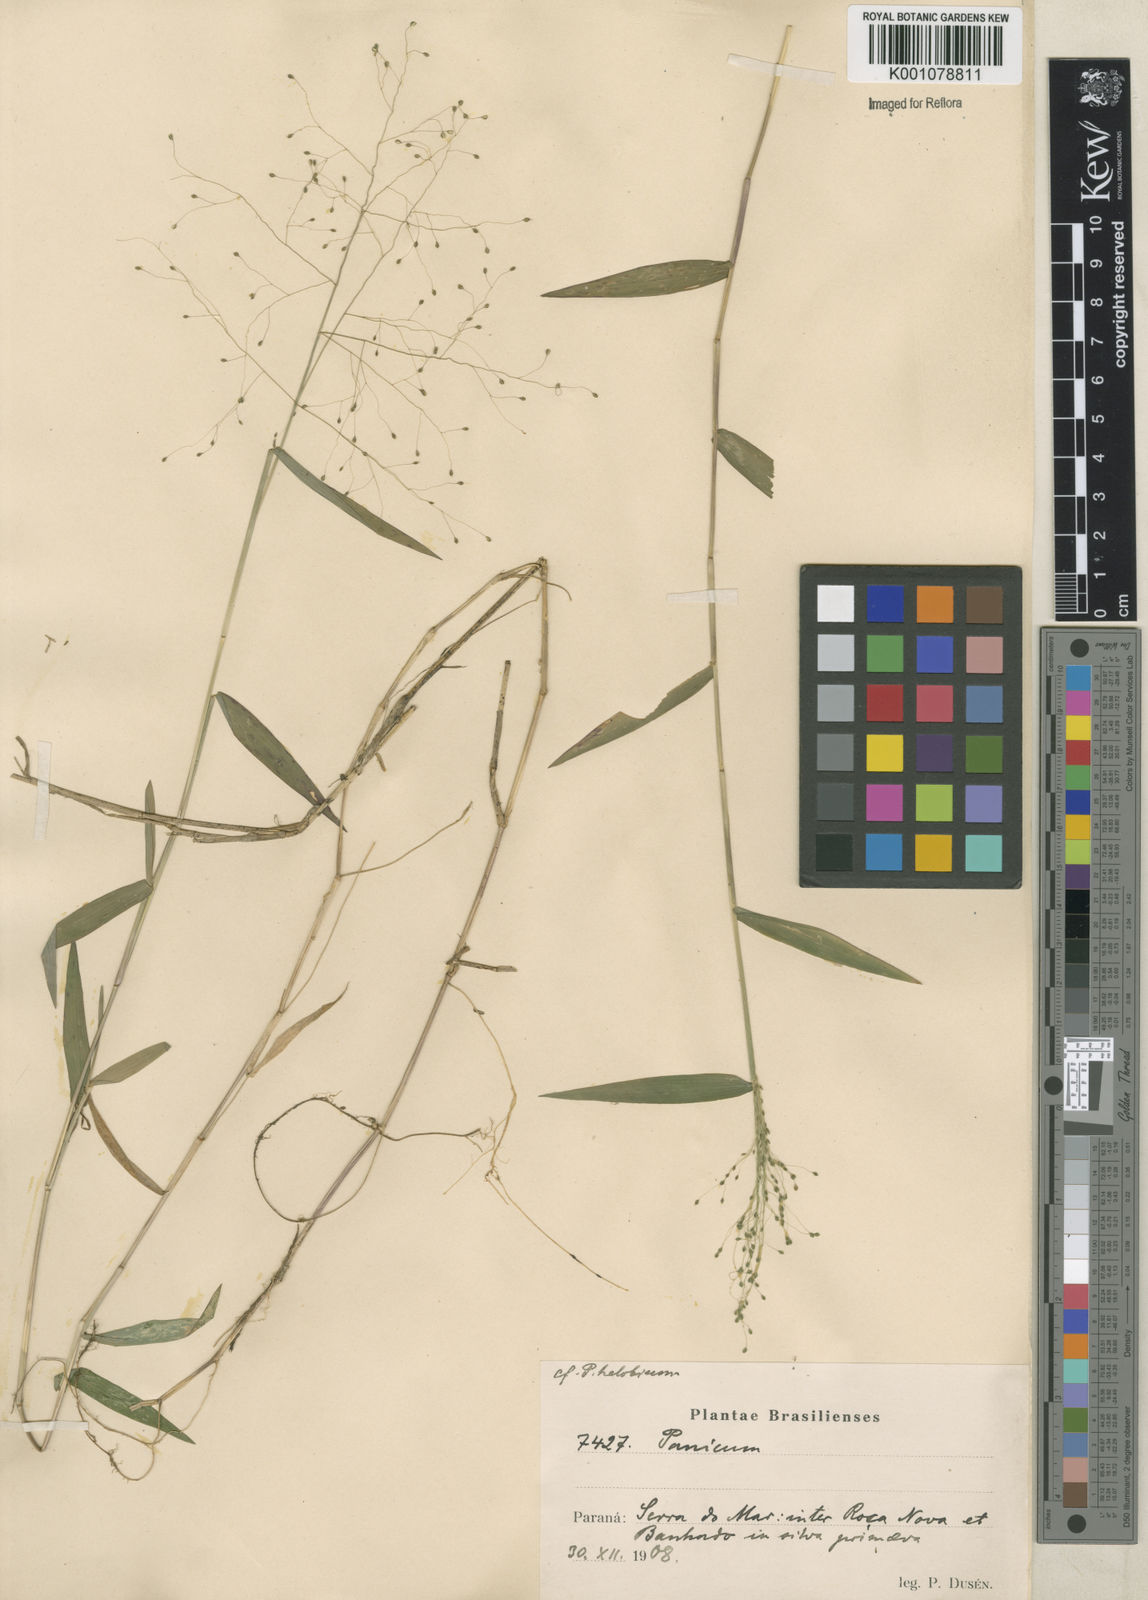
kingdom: Plantae
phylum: Tracheophyta
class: Liliopsida
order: Poales
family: Poaceae
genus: Trichanthecium
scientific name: Trichanthecium schwackeanum
